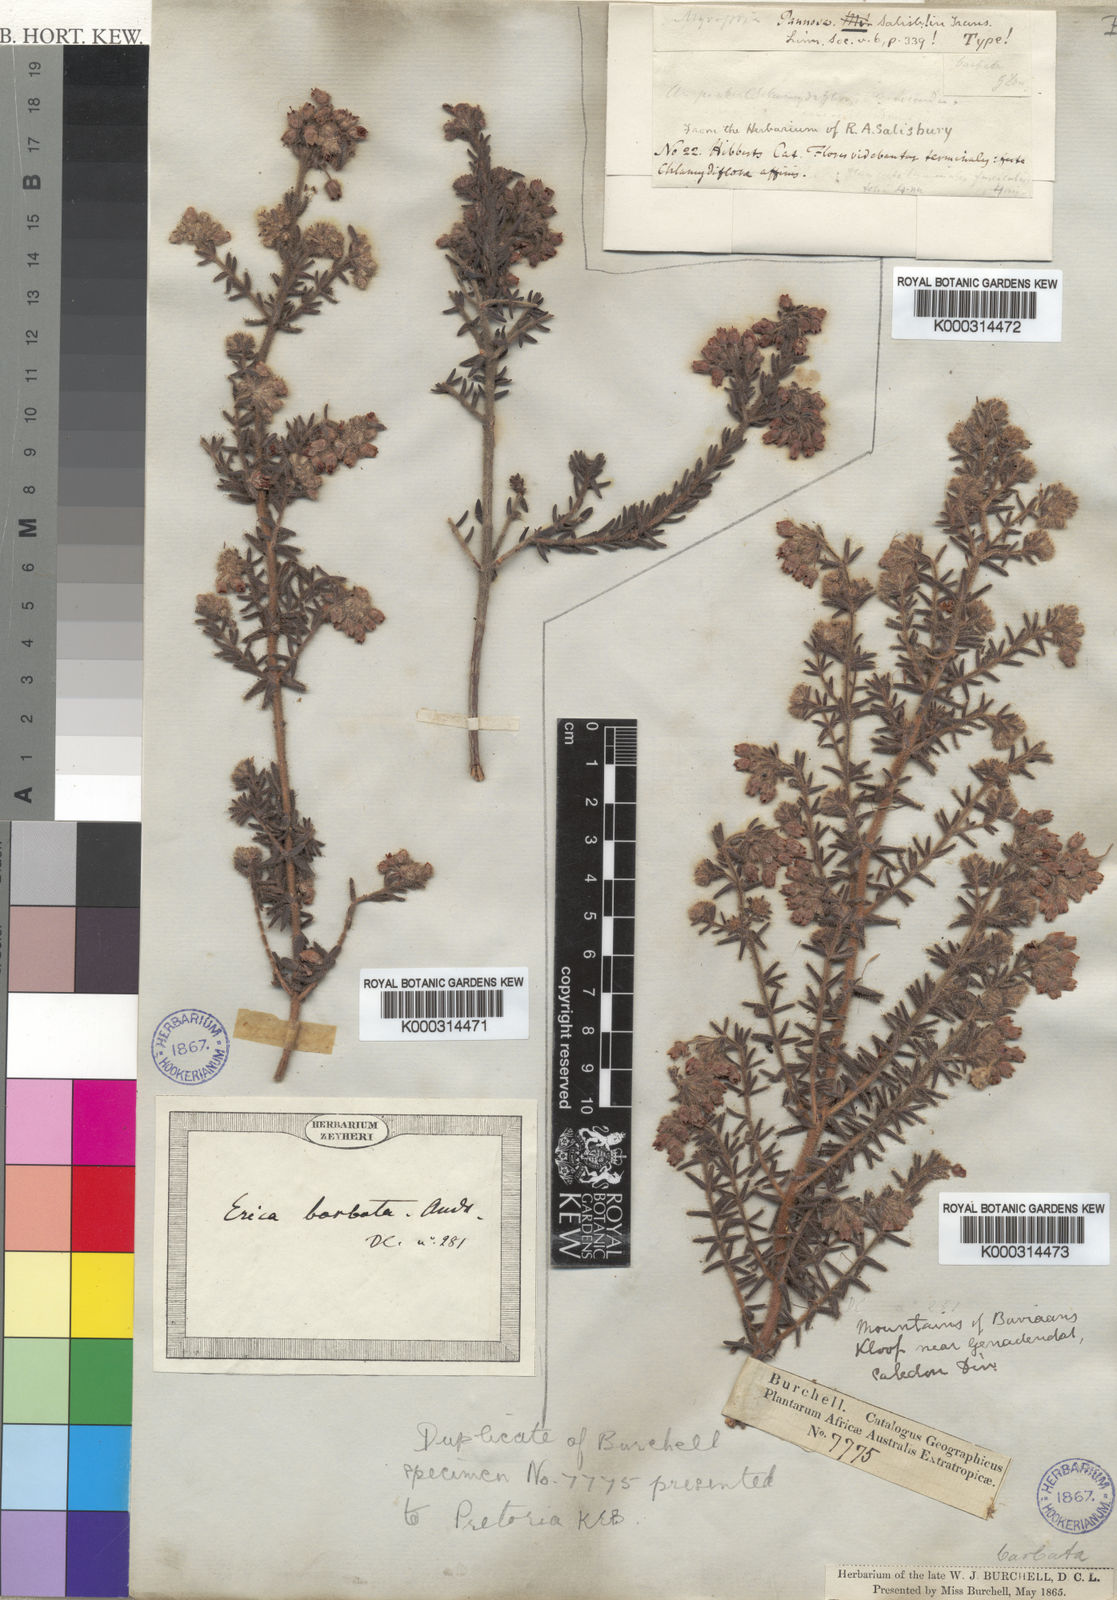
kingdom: Plantae
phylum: Tracheophyta
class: Magnoliopsida
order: Ericales
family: Ericaceae
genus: Erica
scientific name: Erica pannosa
